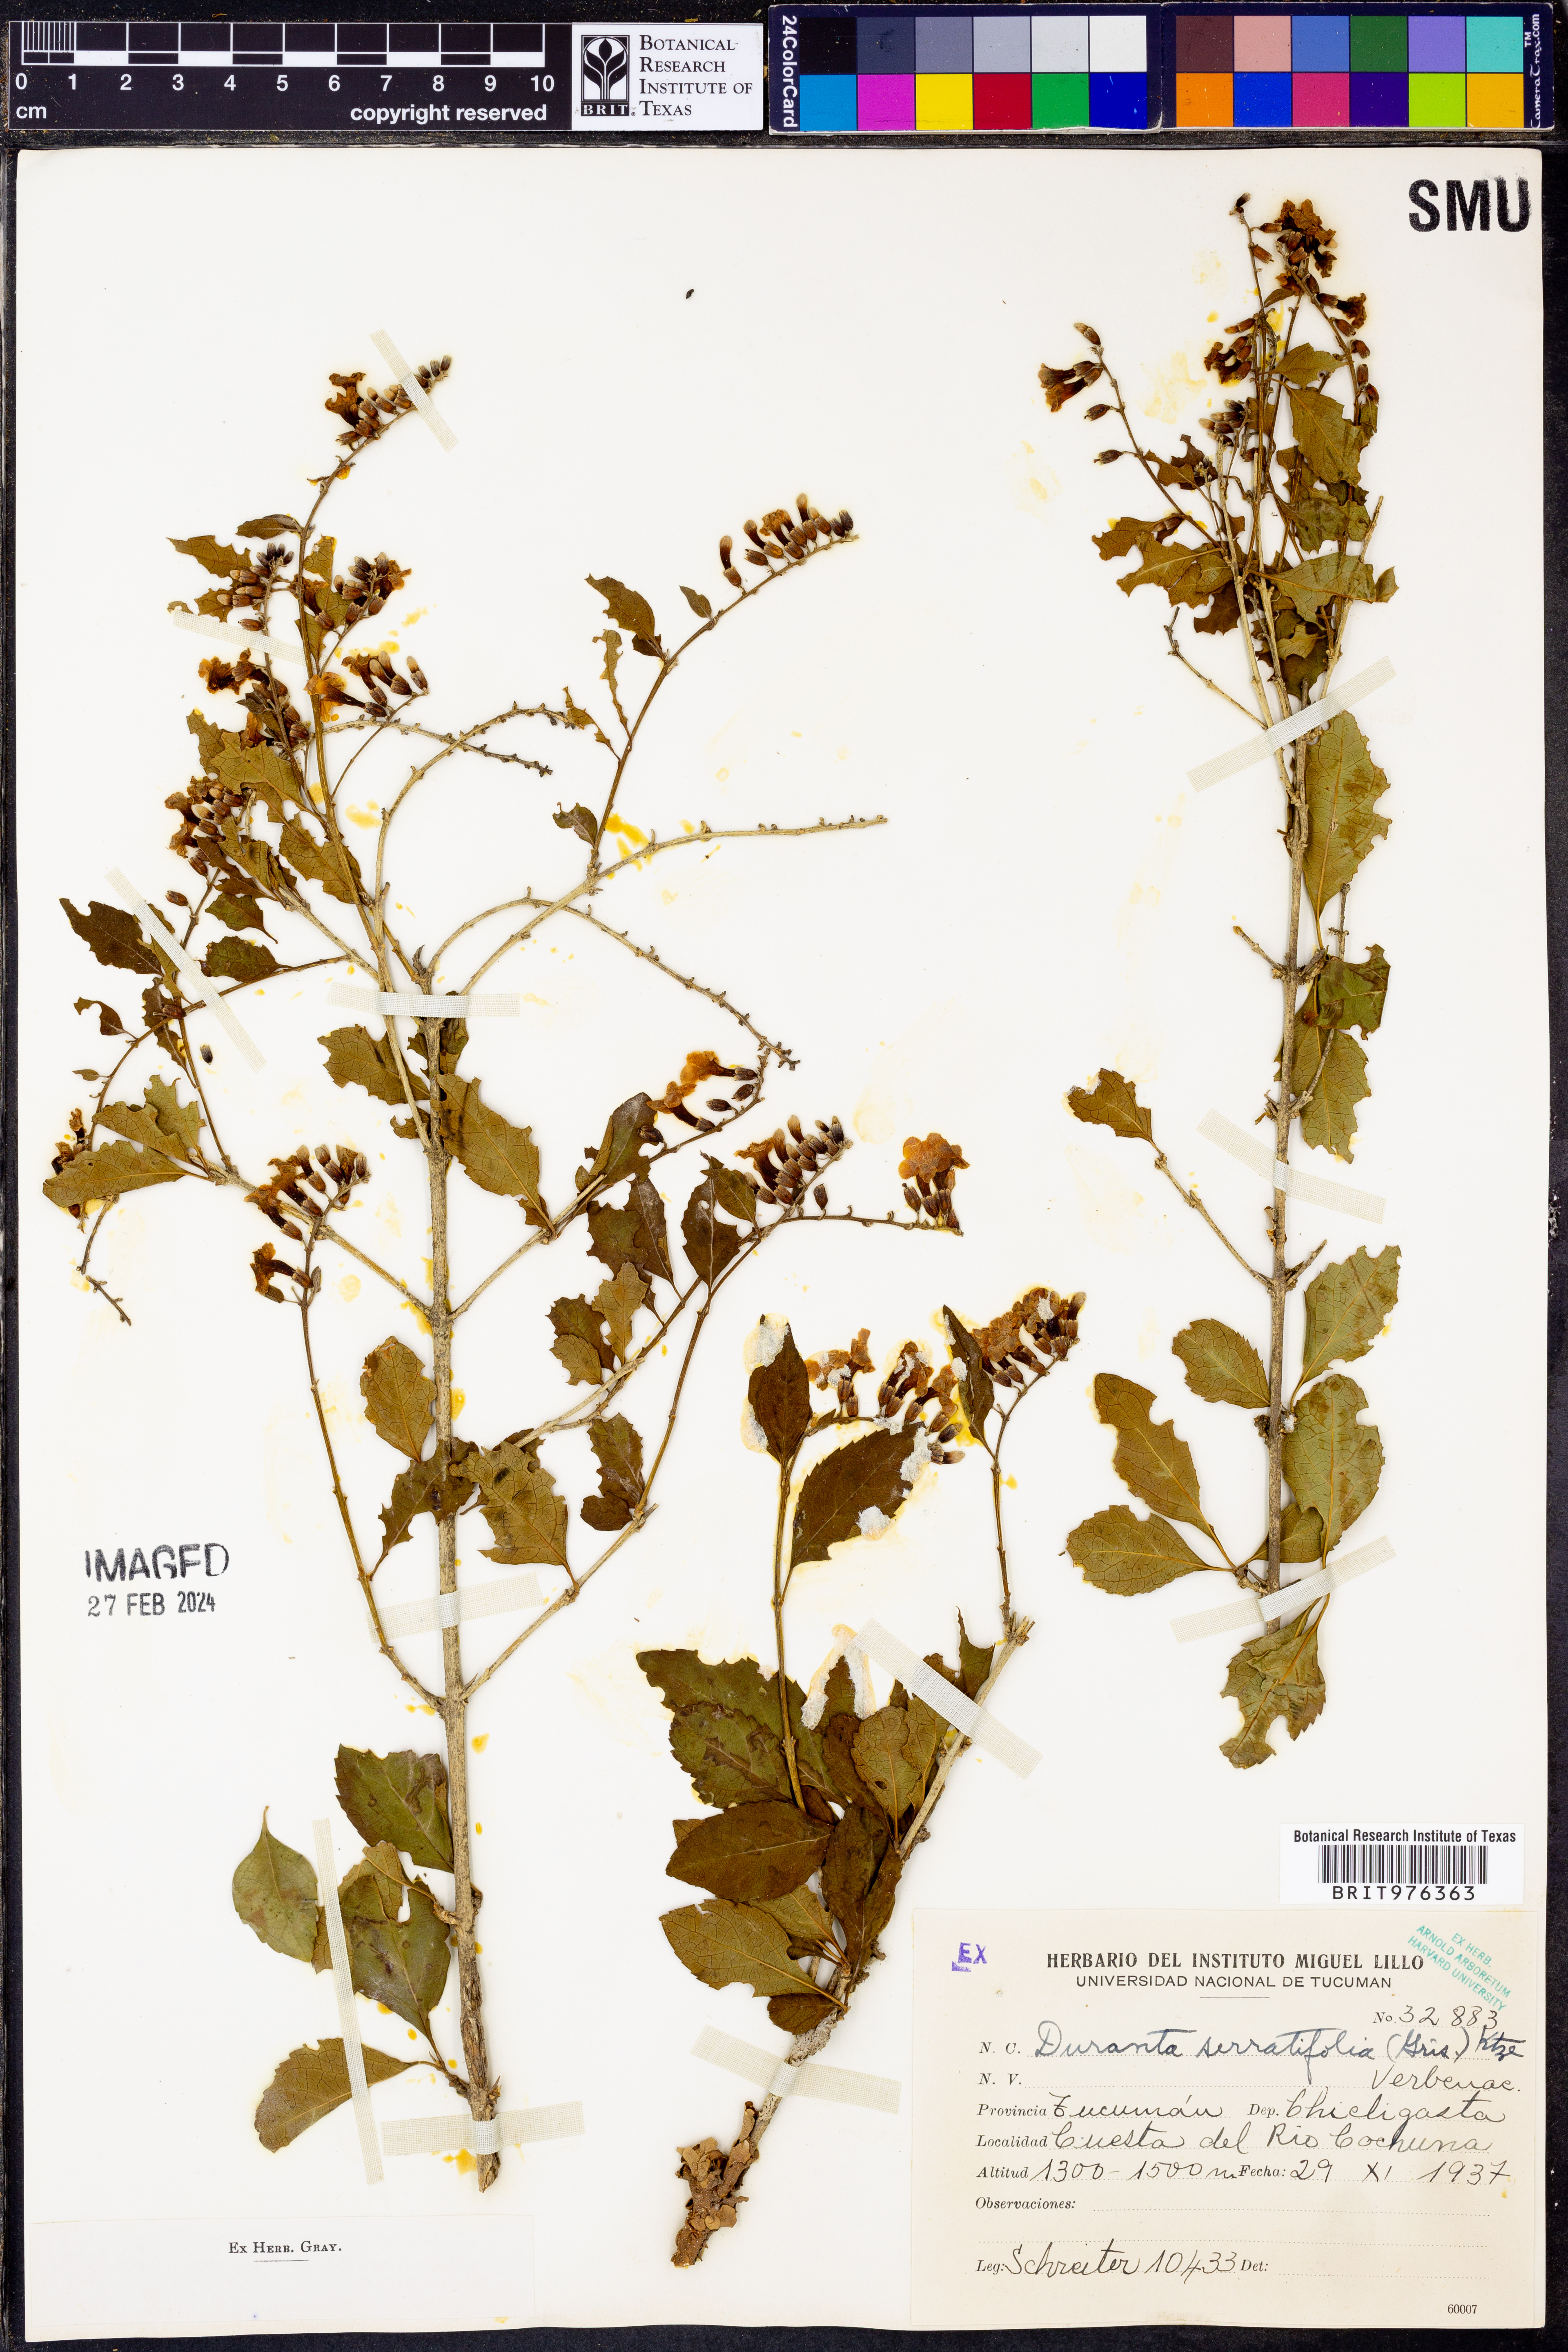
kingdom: Plantae
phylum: Tracheophyta
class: Magnoliopsida
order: Lamiales
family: Verbenaceae
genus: Duranta
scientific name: Duranta
